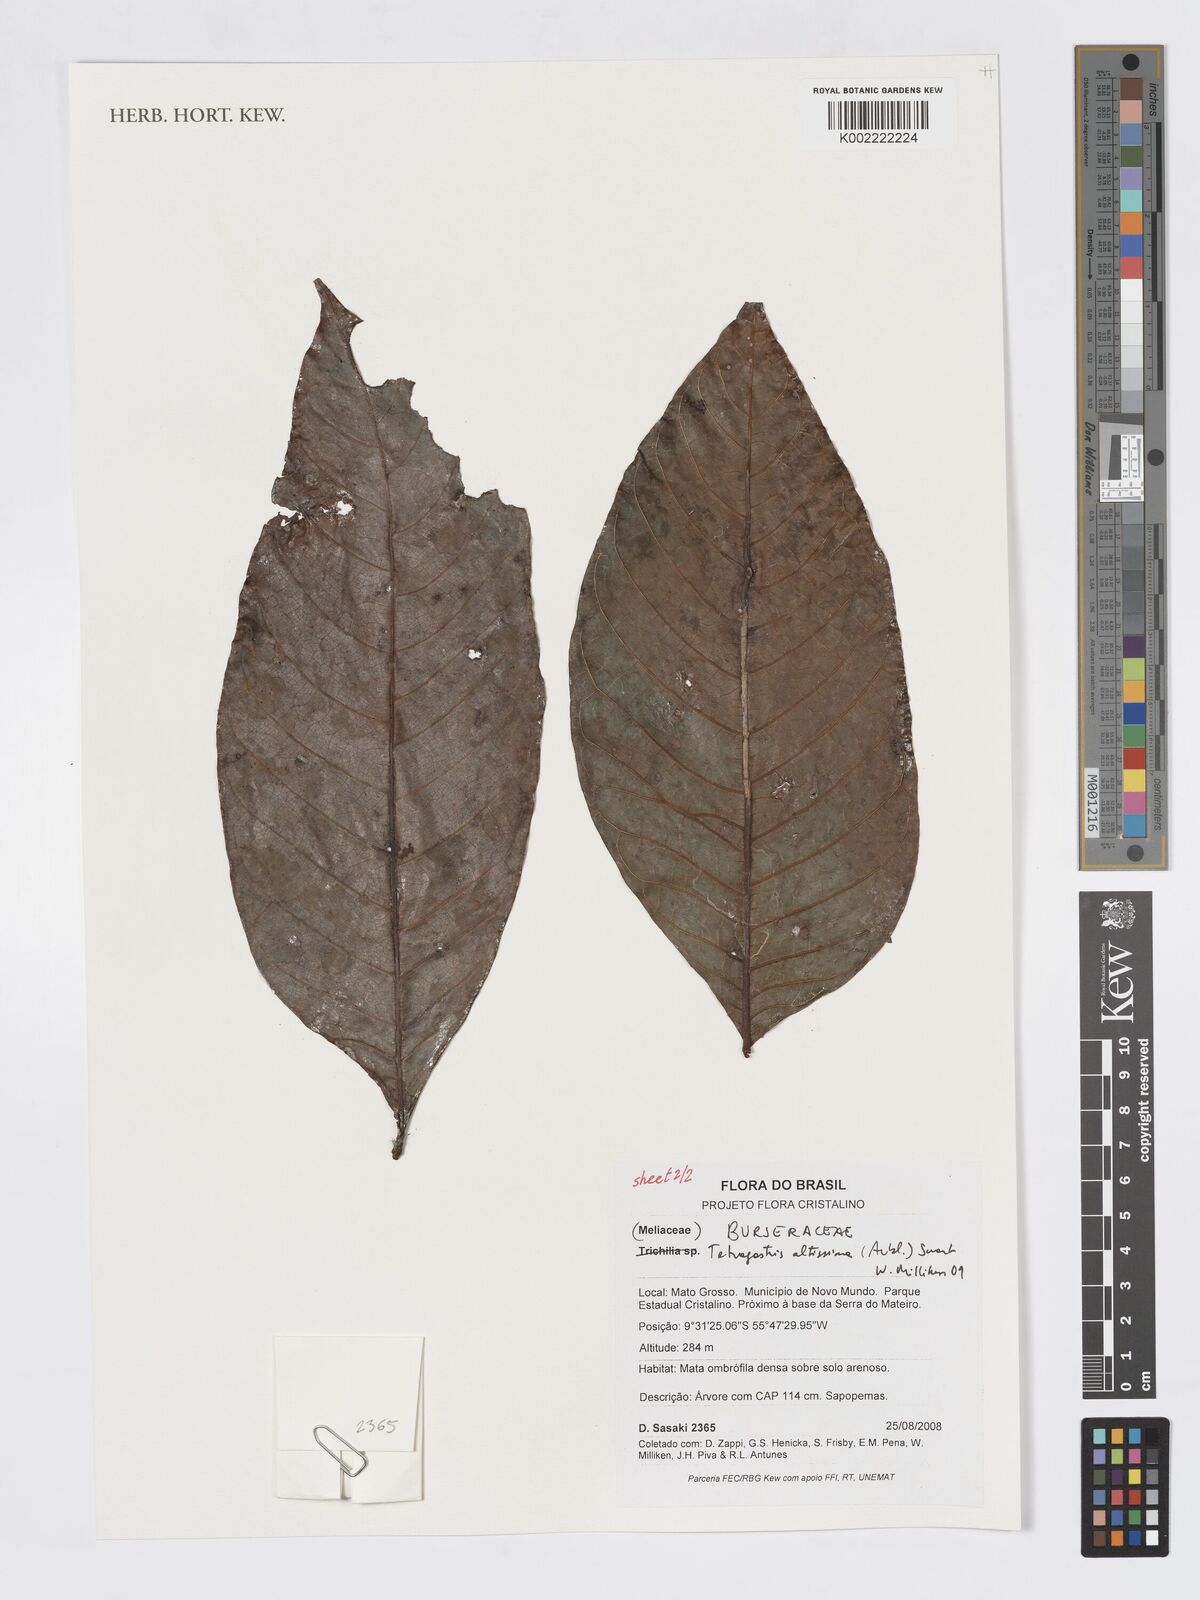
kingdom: Plantae
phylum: Tracheophyta
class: Magnoliopsida
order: Sapindales
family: Burseraceae
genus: Tetragastris
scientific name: Tetragastris altissima
